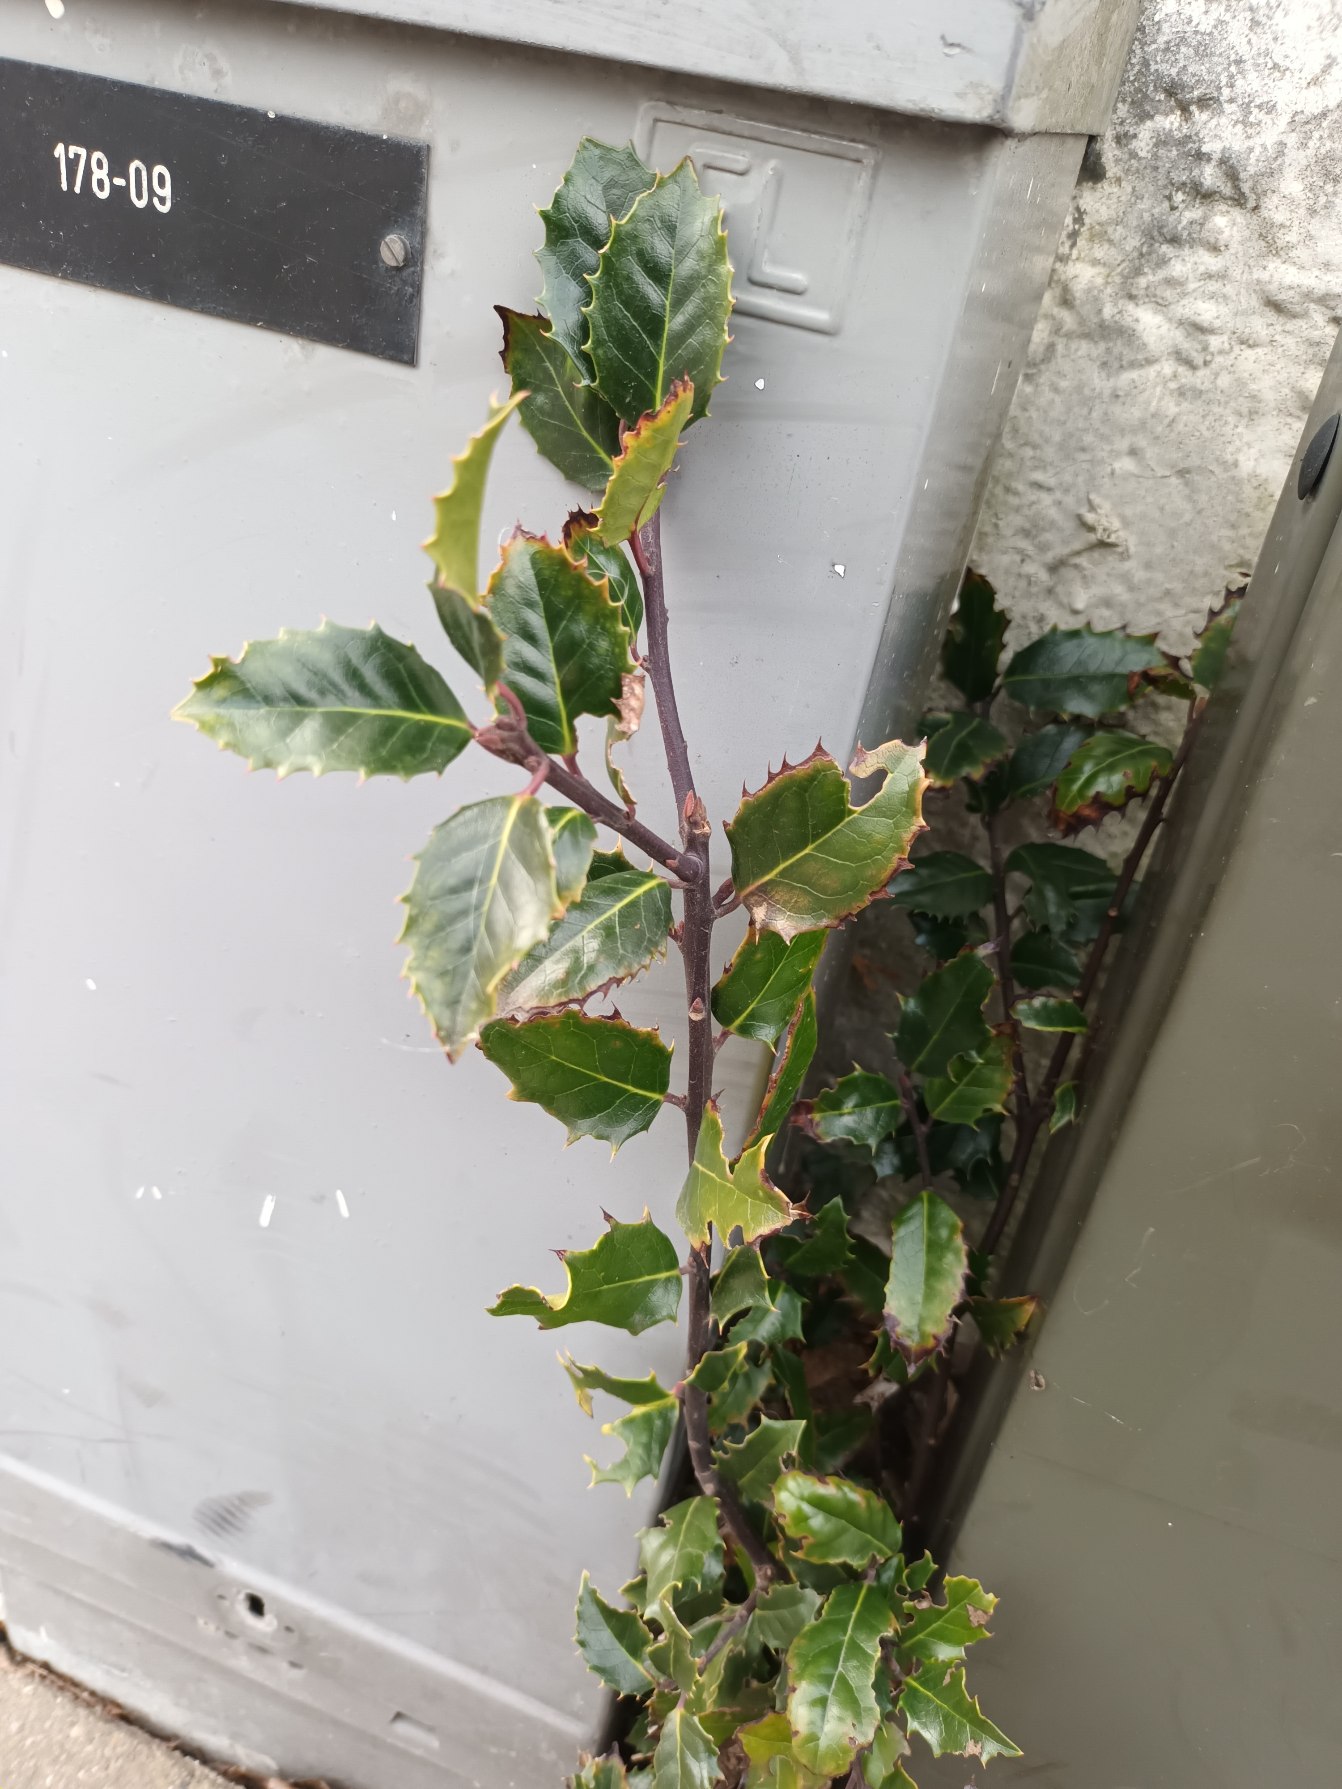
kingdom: Plantae
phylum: Tracheophyta
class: Magnoliopsida
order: Aquifoliales
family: Aquifoliaceae
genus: Ilex
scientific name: Ilex meserveae
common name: Blågrøn kristtorn
